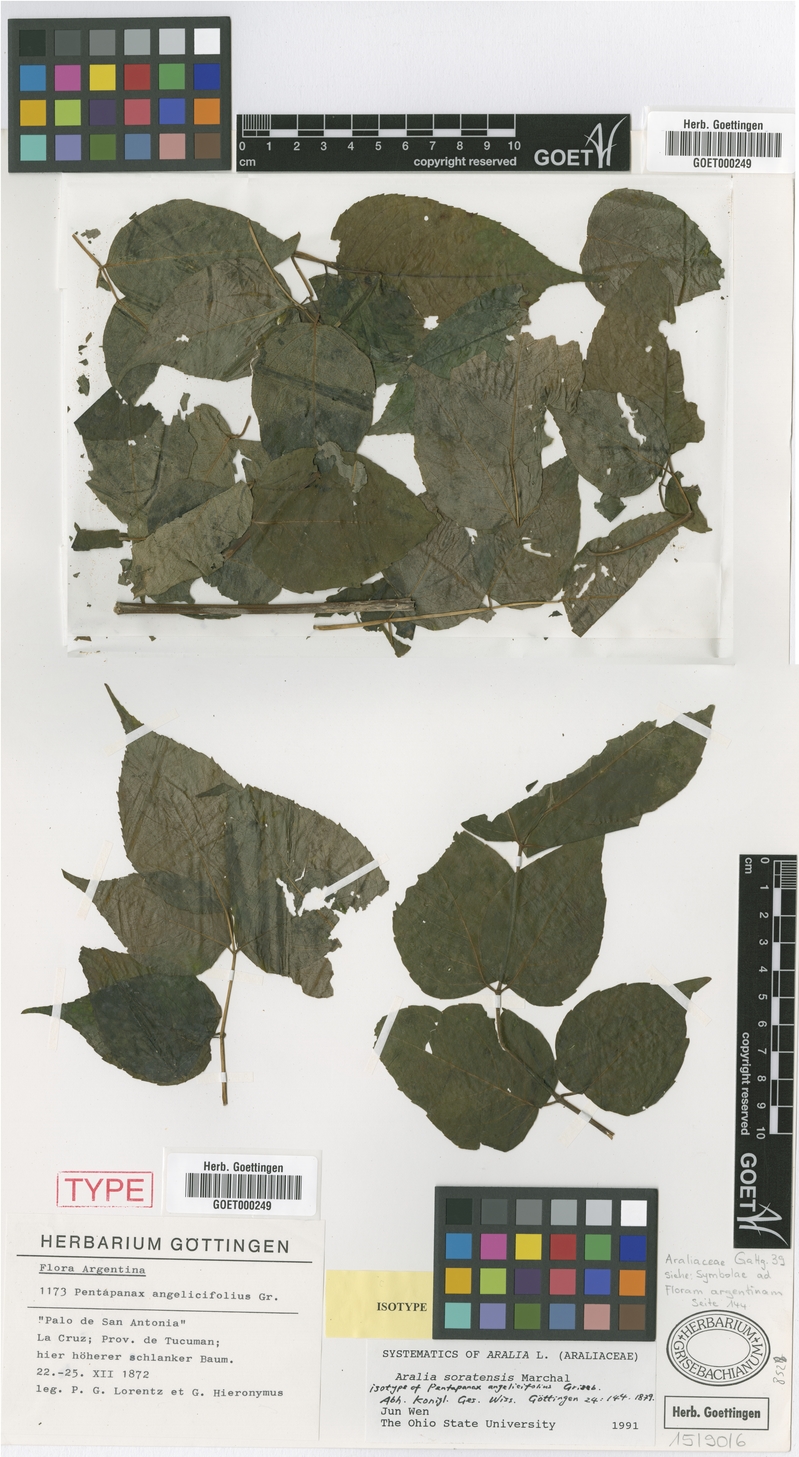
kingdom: Plantae
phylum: Tracheophyta
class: Magnoliopsida
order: Apiales
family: Araliaceae
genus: Aralia
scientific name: Aralia soratensis
